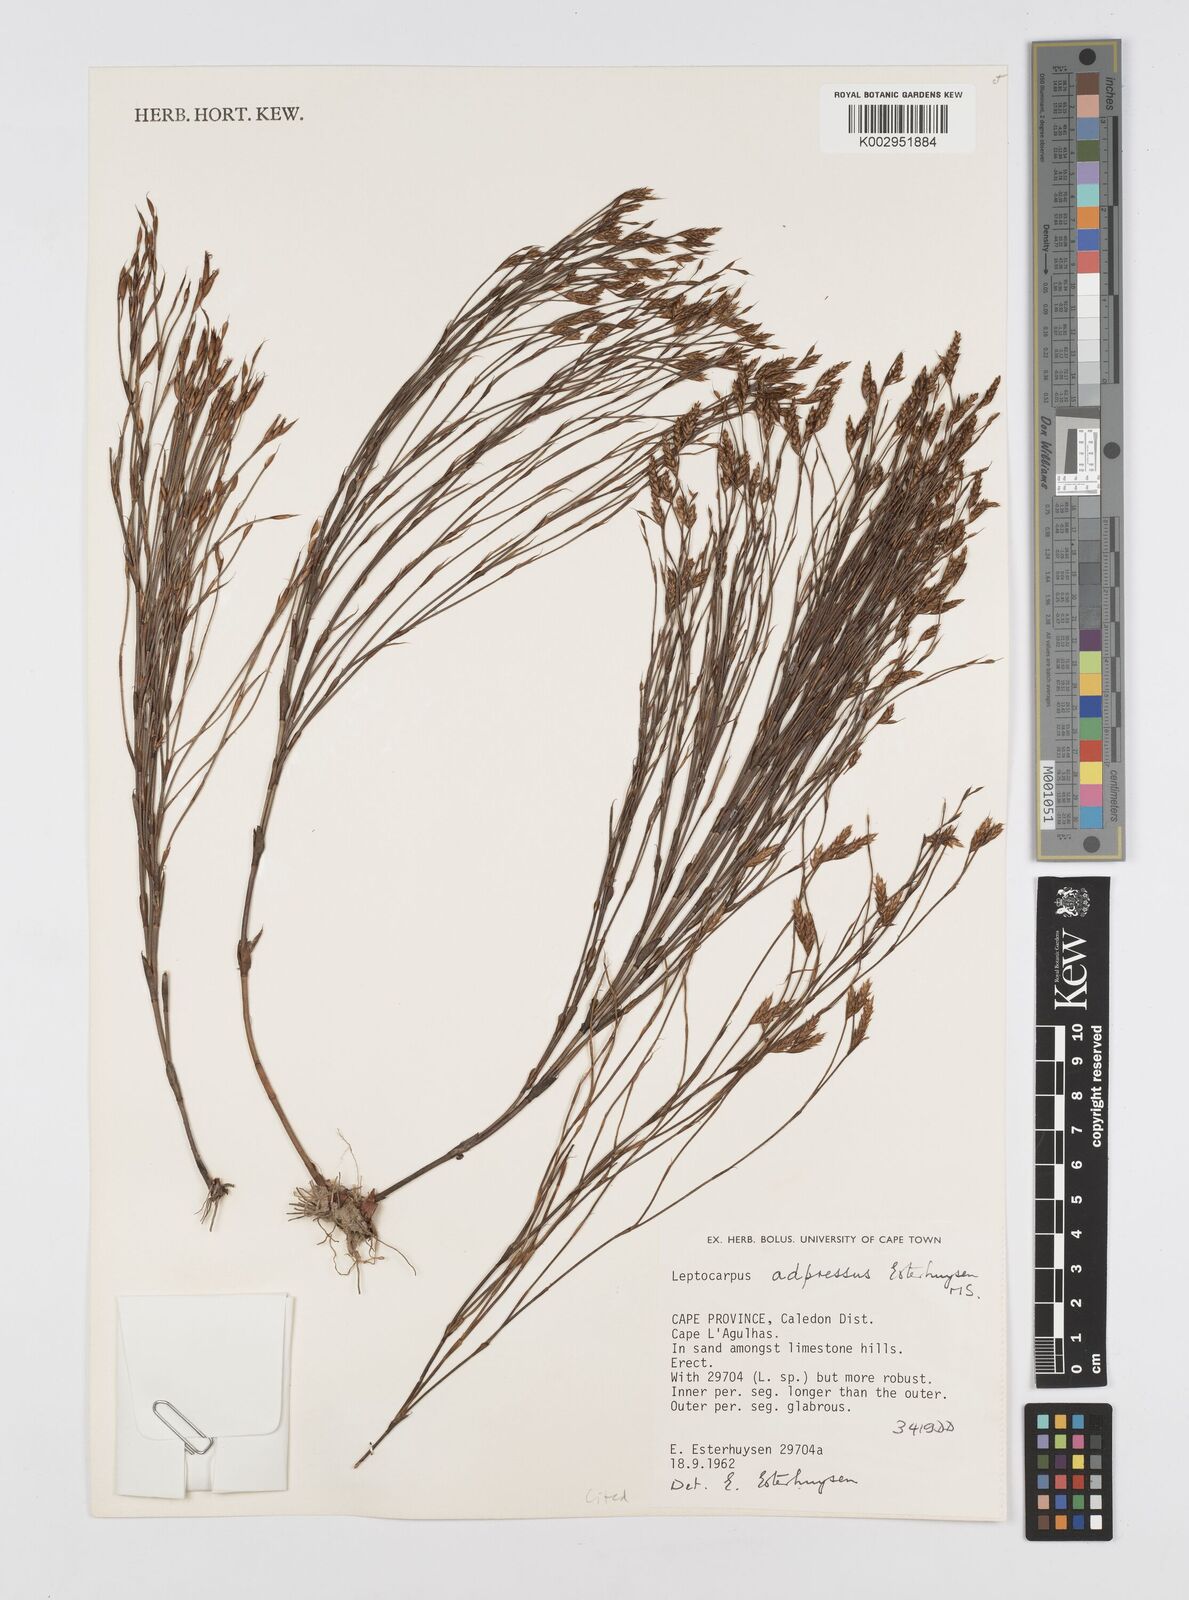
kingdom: Plantae
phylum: Tracheophyta
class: Liliopsida
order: Poales
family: Restionaceae
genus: Restio
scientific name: Restio adpressus
